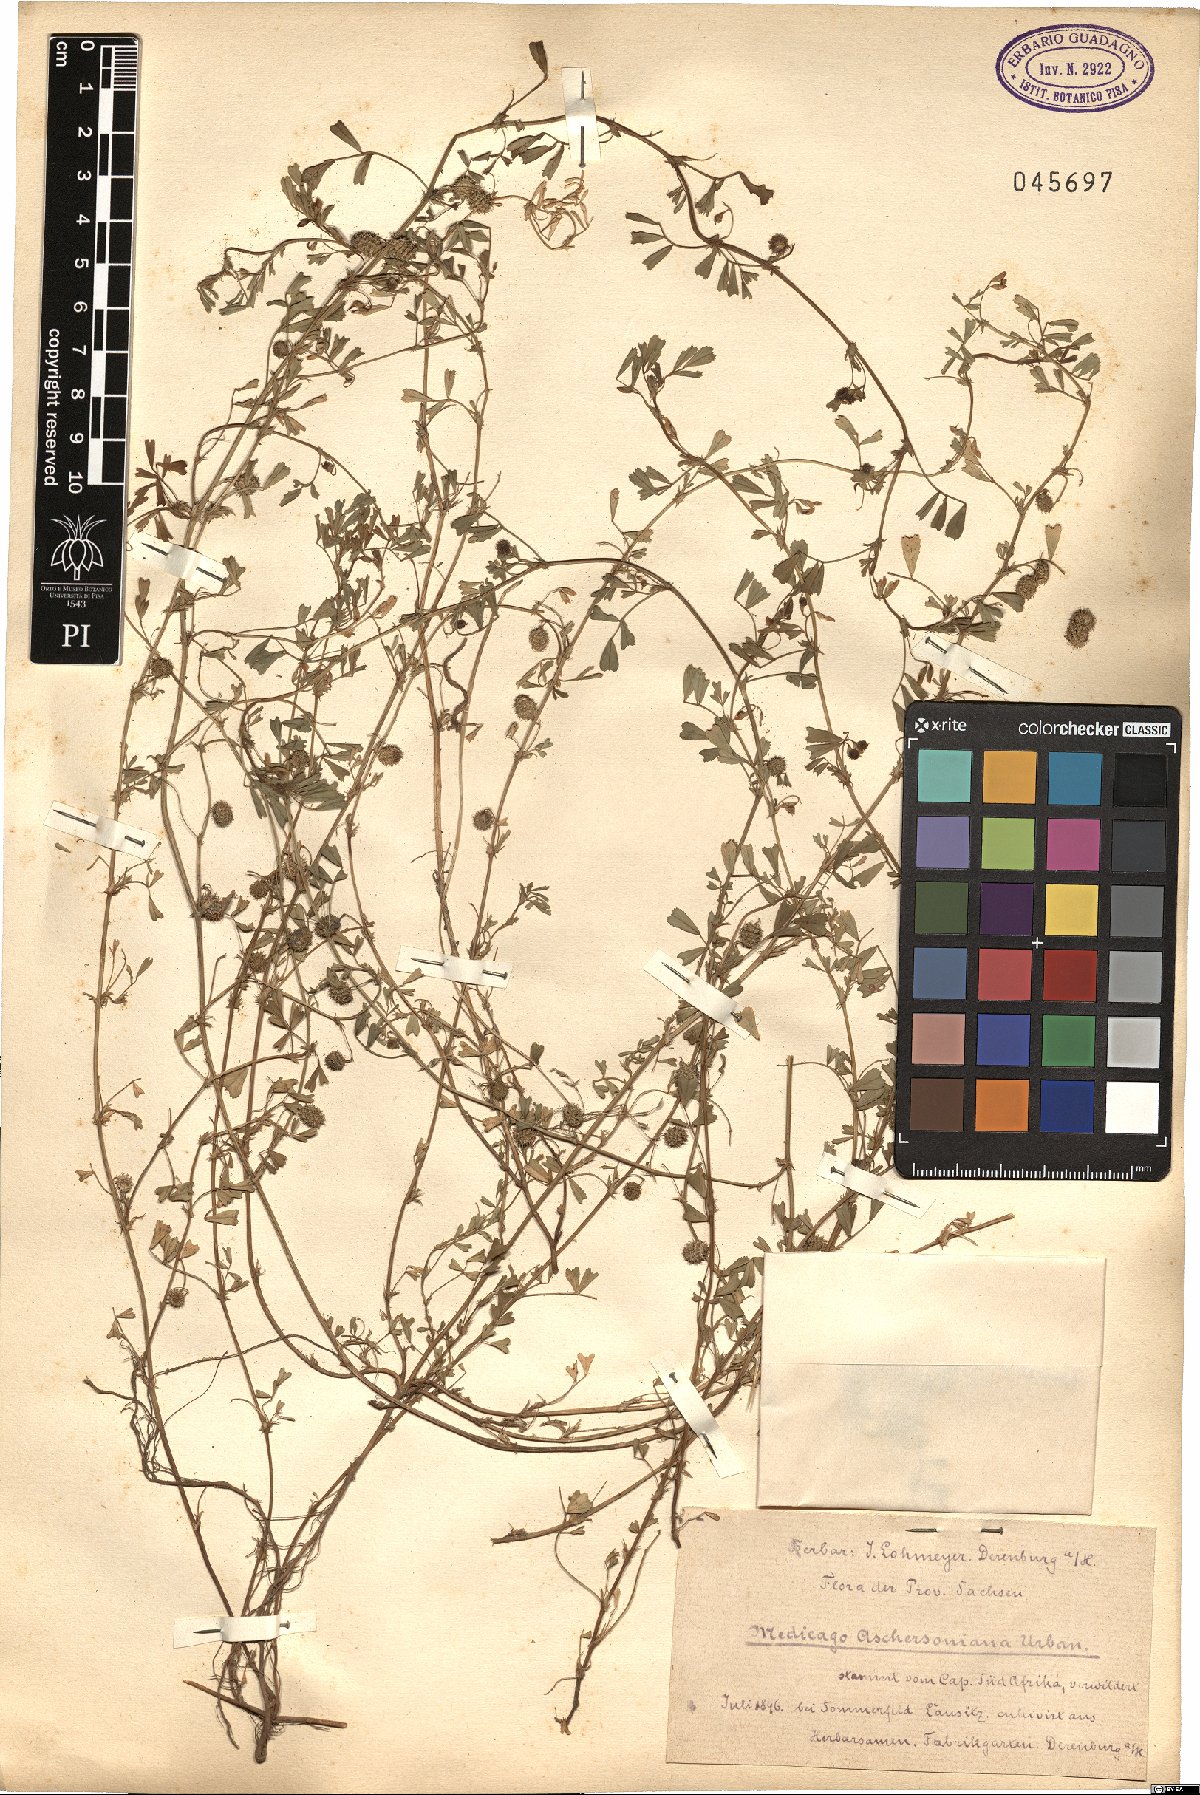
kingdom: Plantae
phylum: Tracheophyta
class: Magnoliopsida
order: Fabales
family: Fabaceae
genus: Medicago
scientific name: Medicago laciniata
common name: Tattered medick
